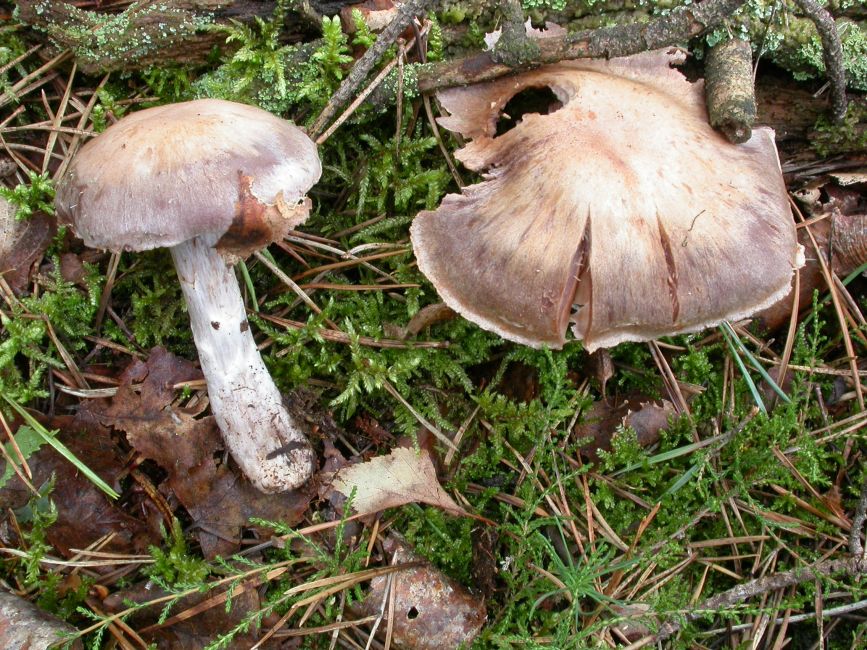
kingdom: Fungi
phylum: Basidiomycota
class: Agaricomycetes
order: Agaricales
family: Cortinariaceae
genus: Cortinarius
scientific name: Cortinarius quarciticus
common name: kvarts-slørhat
